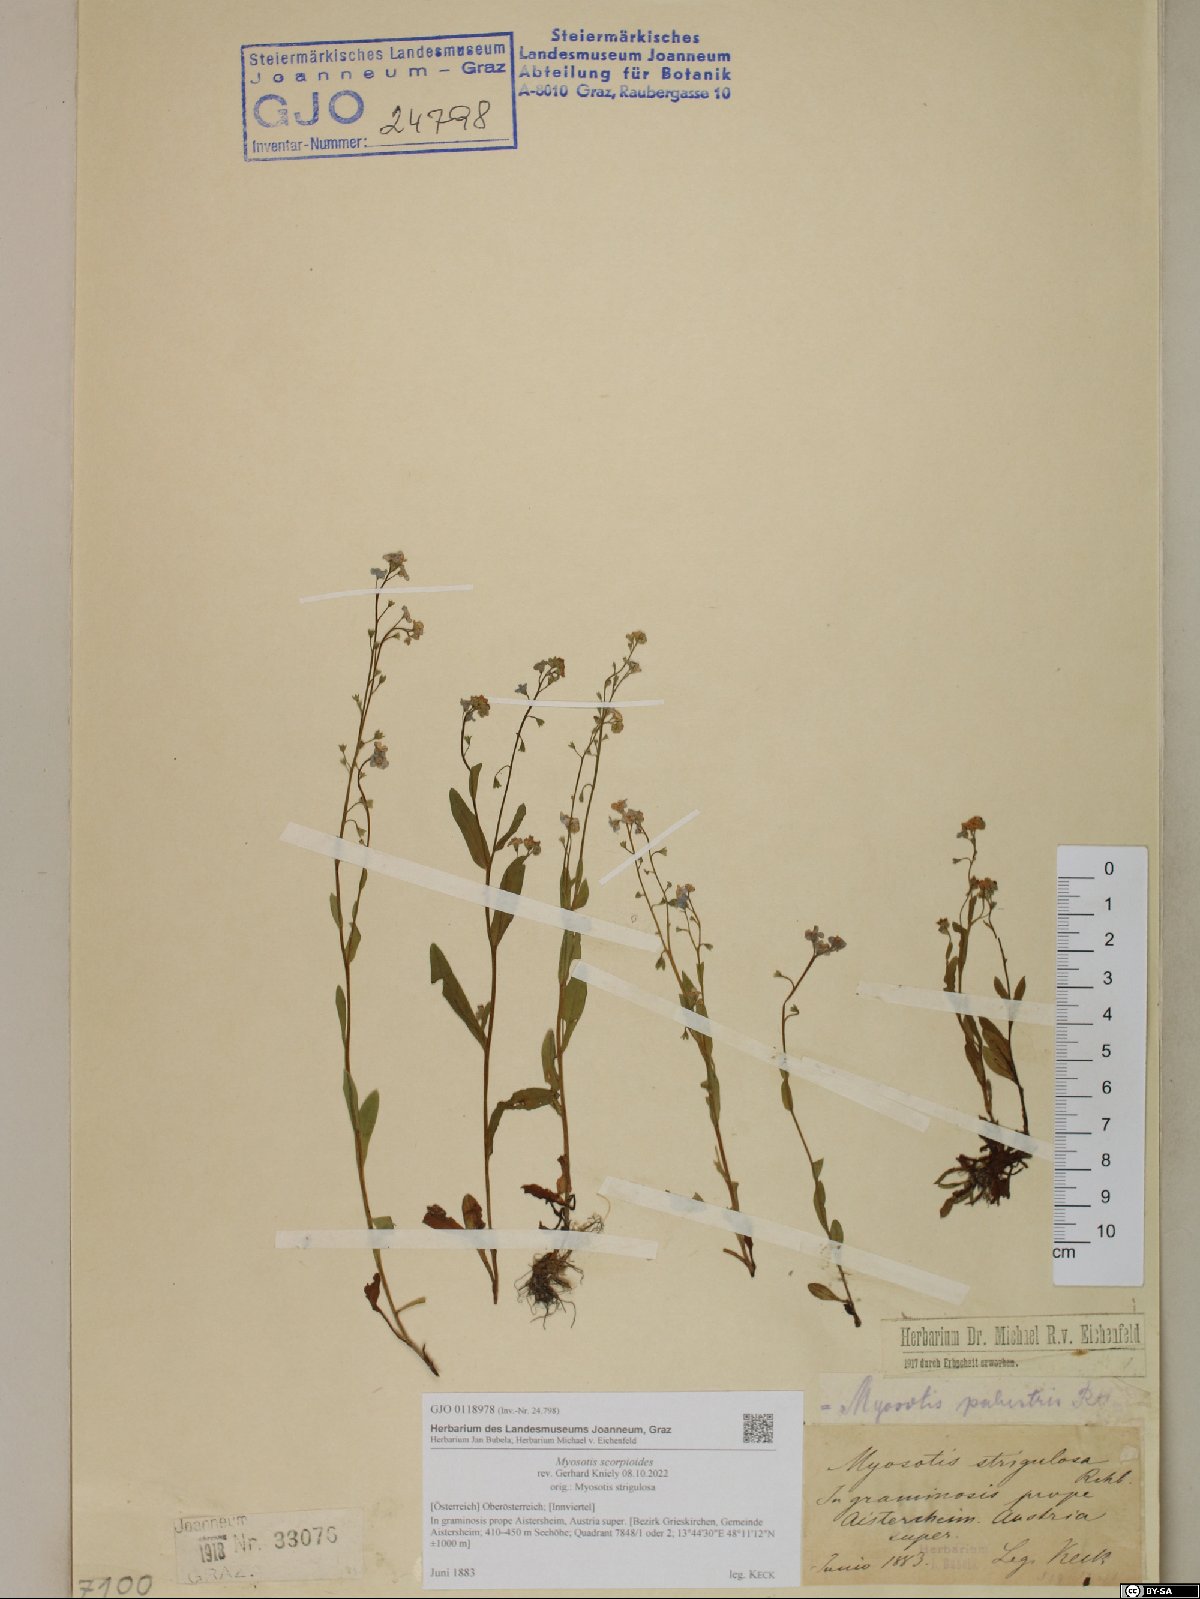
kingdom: Plantae
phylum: Tracheophyta
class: Magnoliopsida
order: Boraginales
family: Boraginaceae
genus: Myosotis
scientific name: Myosotis scorpioides
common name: Water forget-me-not
